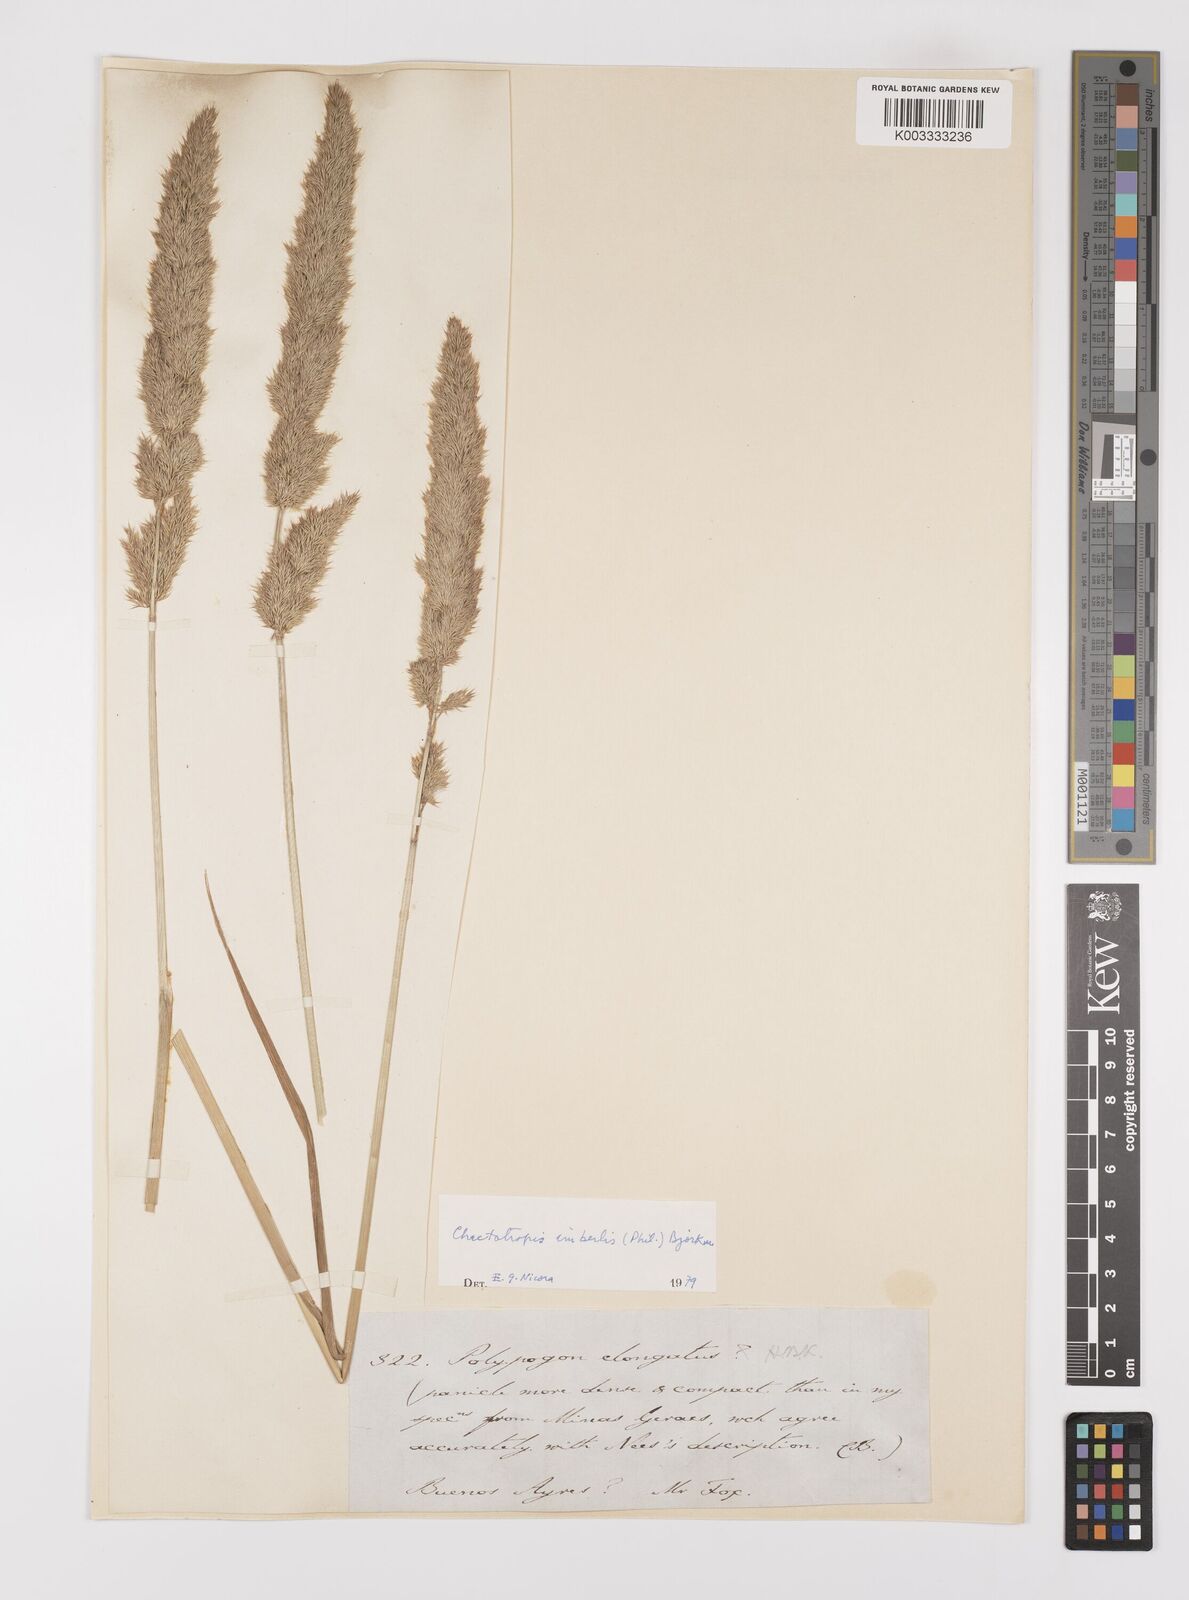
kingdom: Plantae
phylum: Tracheophyta
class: Liliopsida
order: Poales
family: Poaceae
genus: Polypogon
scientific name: Polypogon imberbis
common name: Beardless rabbitsfoot grass
